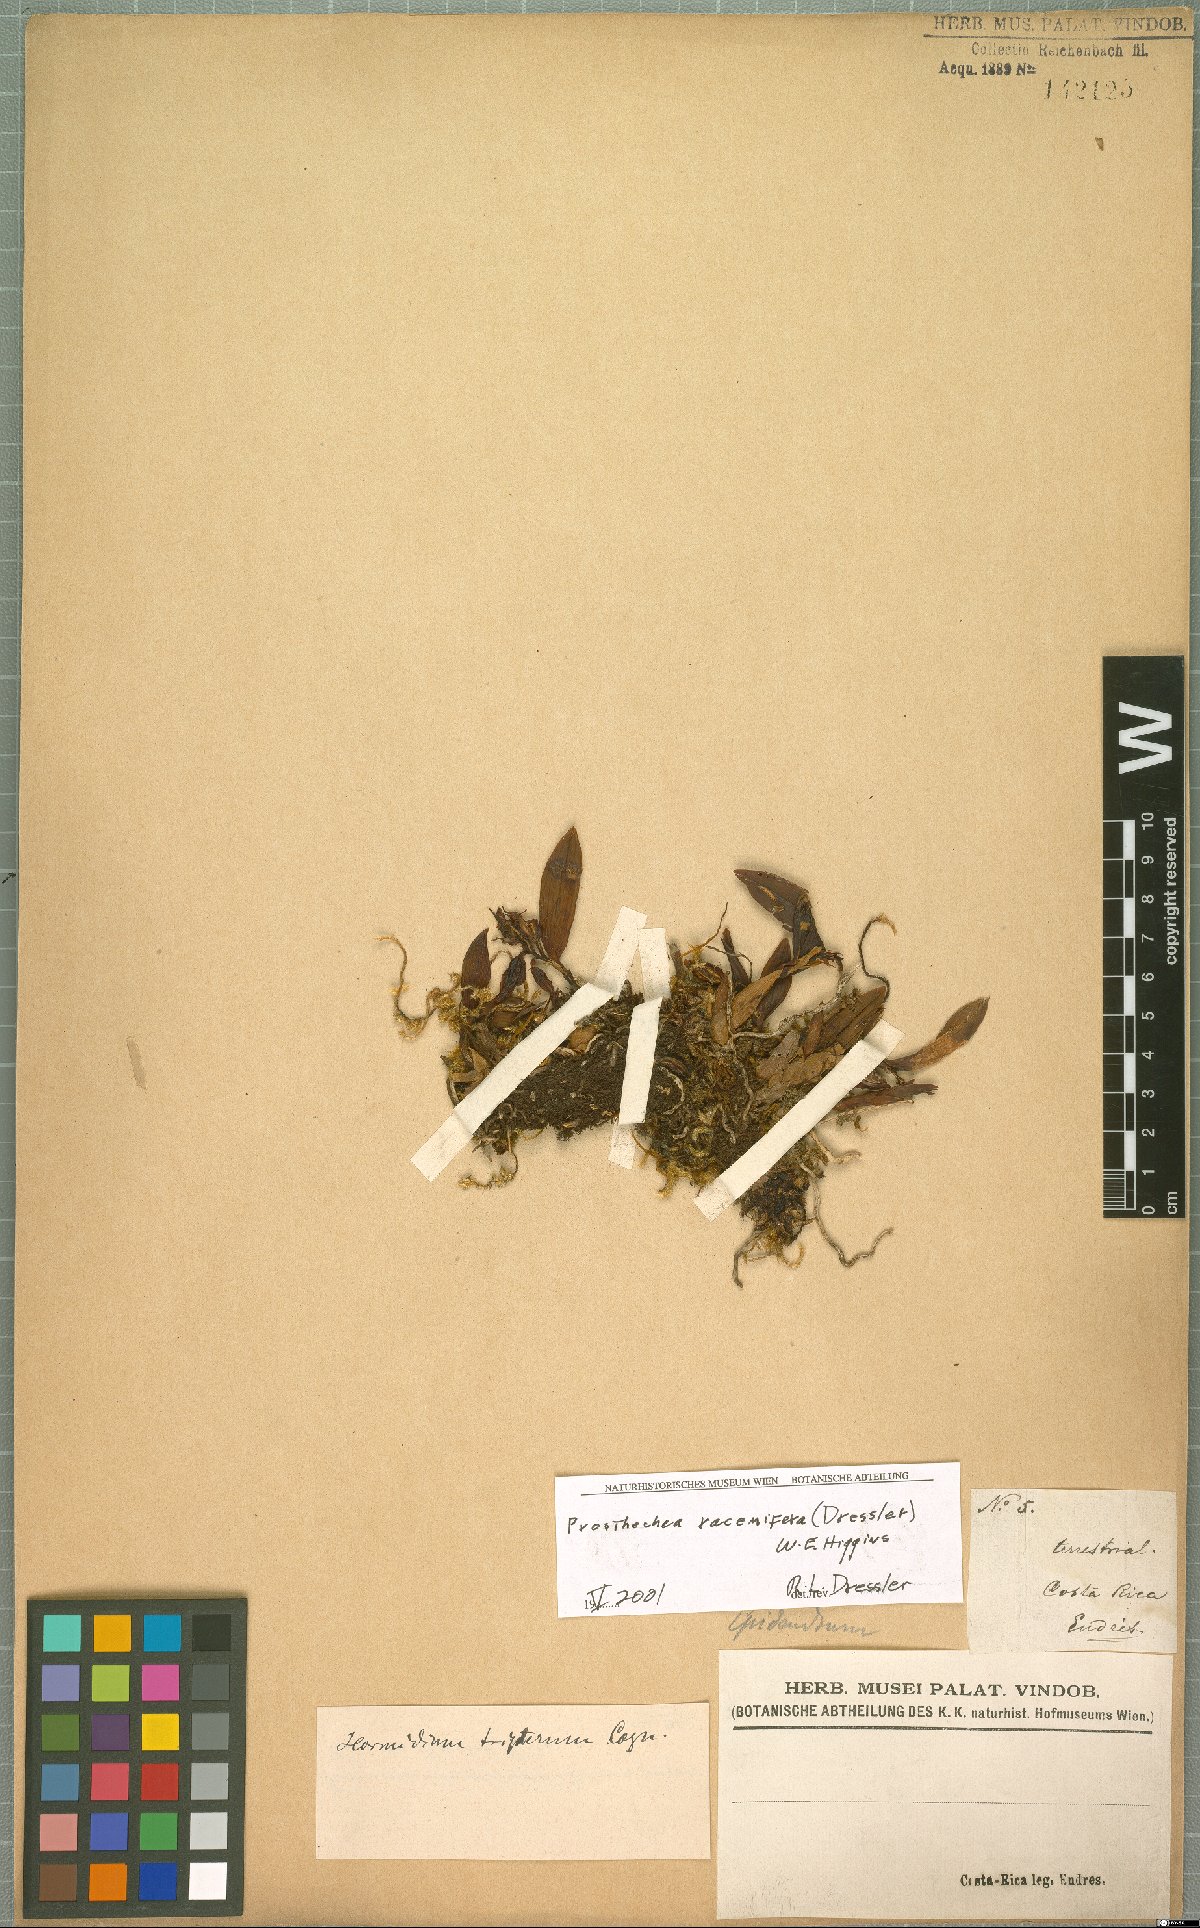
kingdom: Plantae
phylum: Tracheophyta
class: Liliopsida
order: Asparagales
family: Orchidaceae
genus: Prosthechea
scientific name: Prosthechea racemifera
